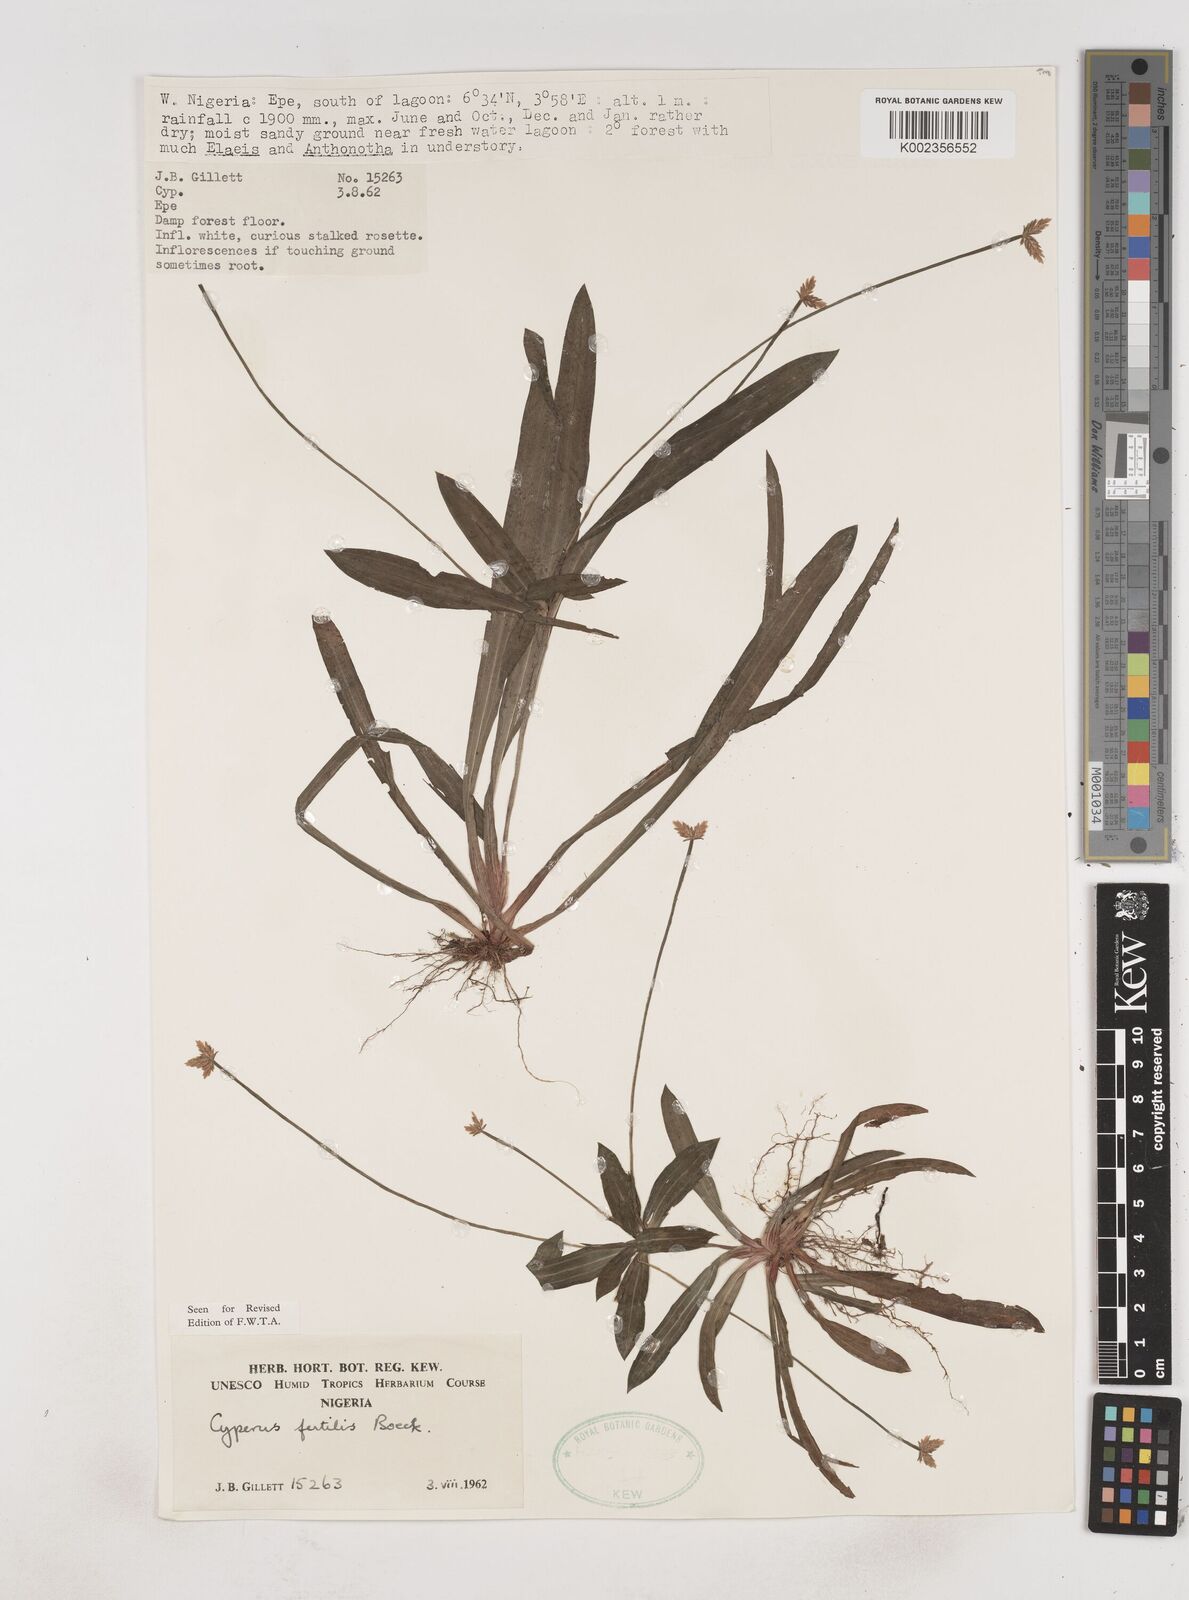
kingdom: Plantae
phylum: Tracheophyta
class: Liliopsida
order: Poales
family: Cyperaceae
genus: Cyperus
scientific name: Cyperus fertilis
